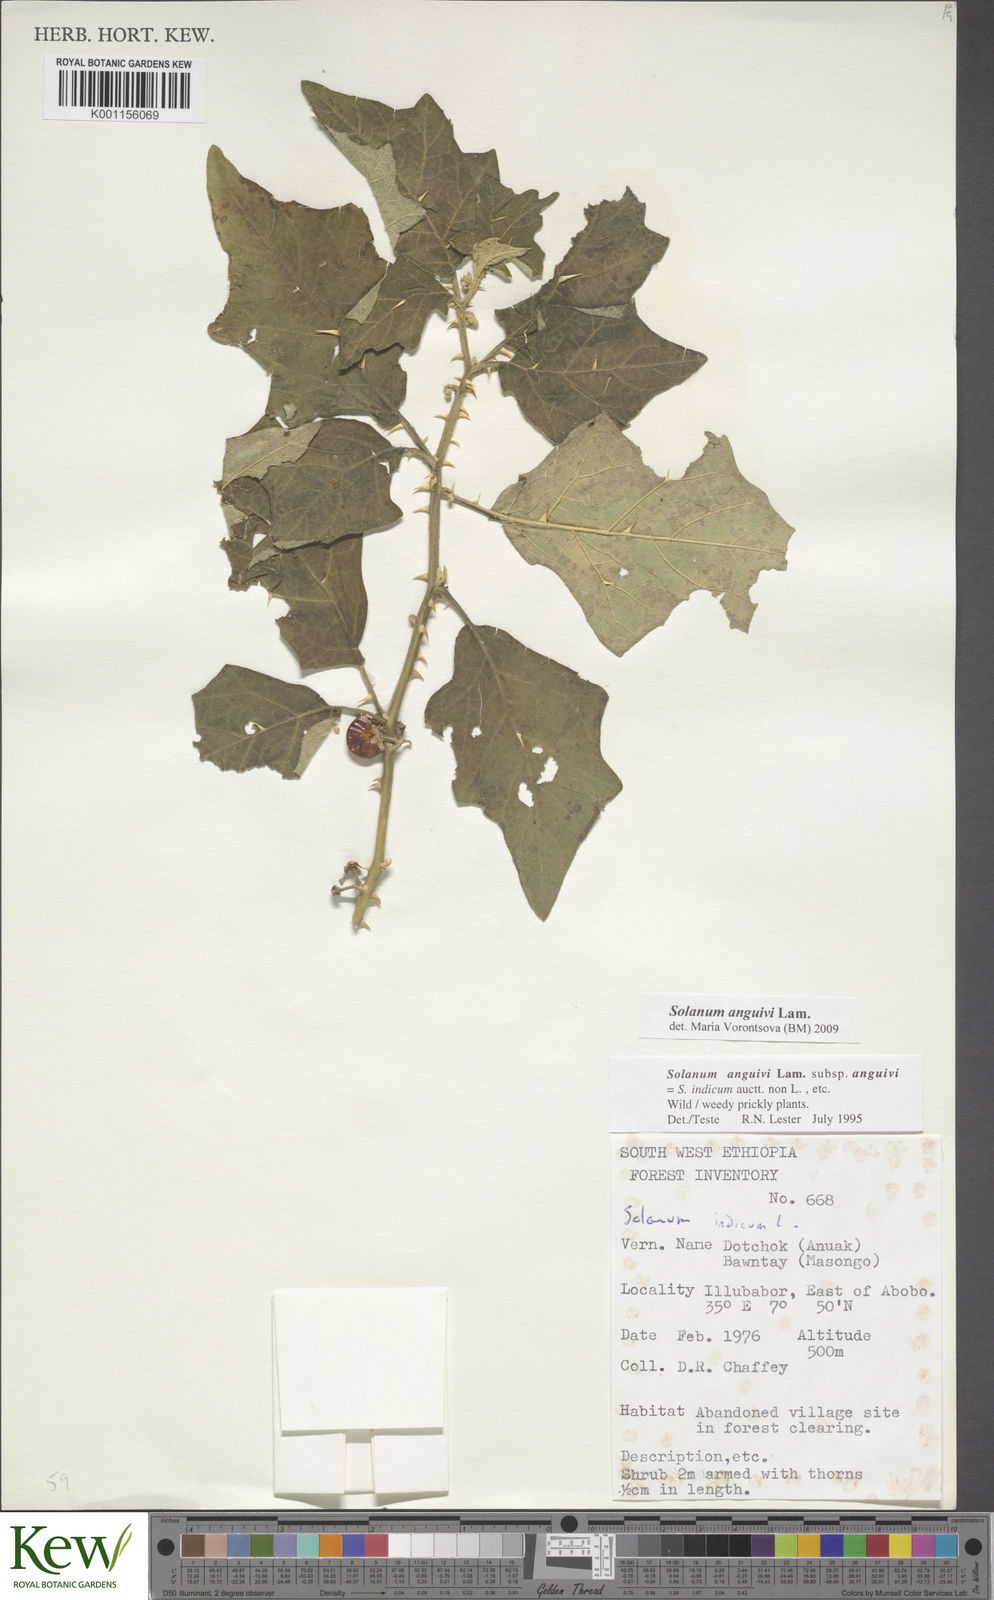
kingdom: Plantae
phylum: Tracheophyta
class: Magnoliopsida
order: Solanales
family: Solanaceae
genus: Solanum
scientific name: Solanum anguivi
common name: Forest bitterberry
